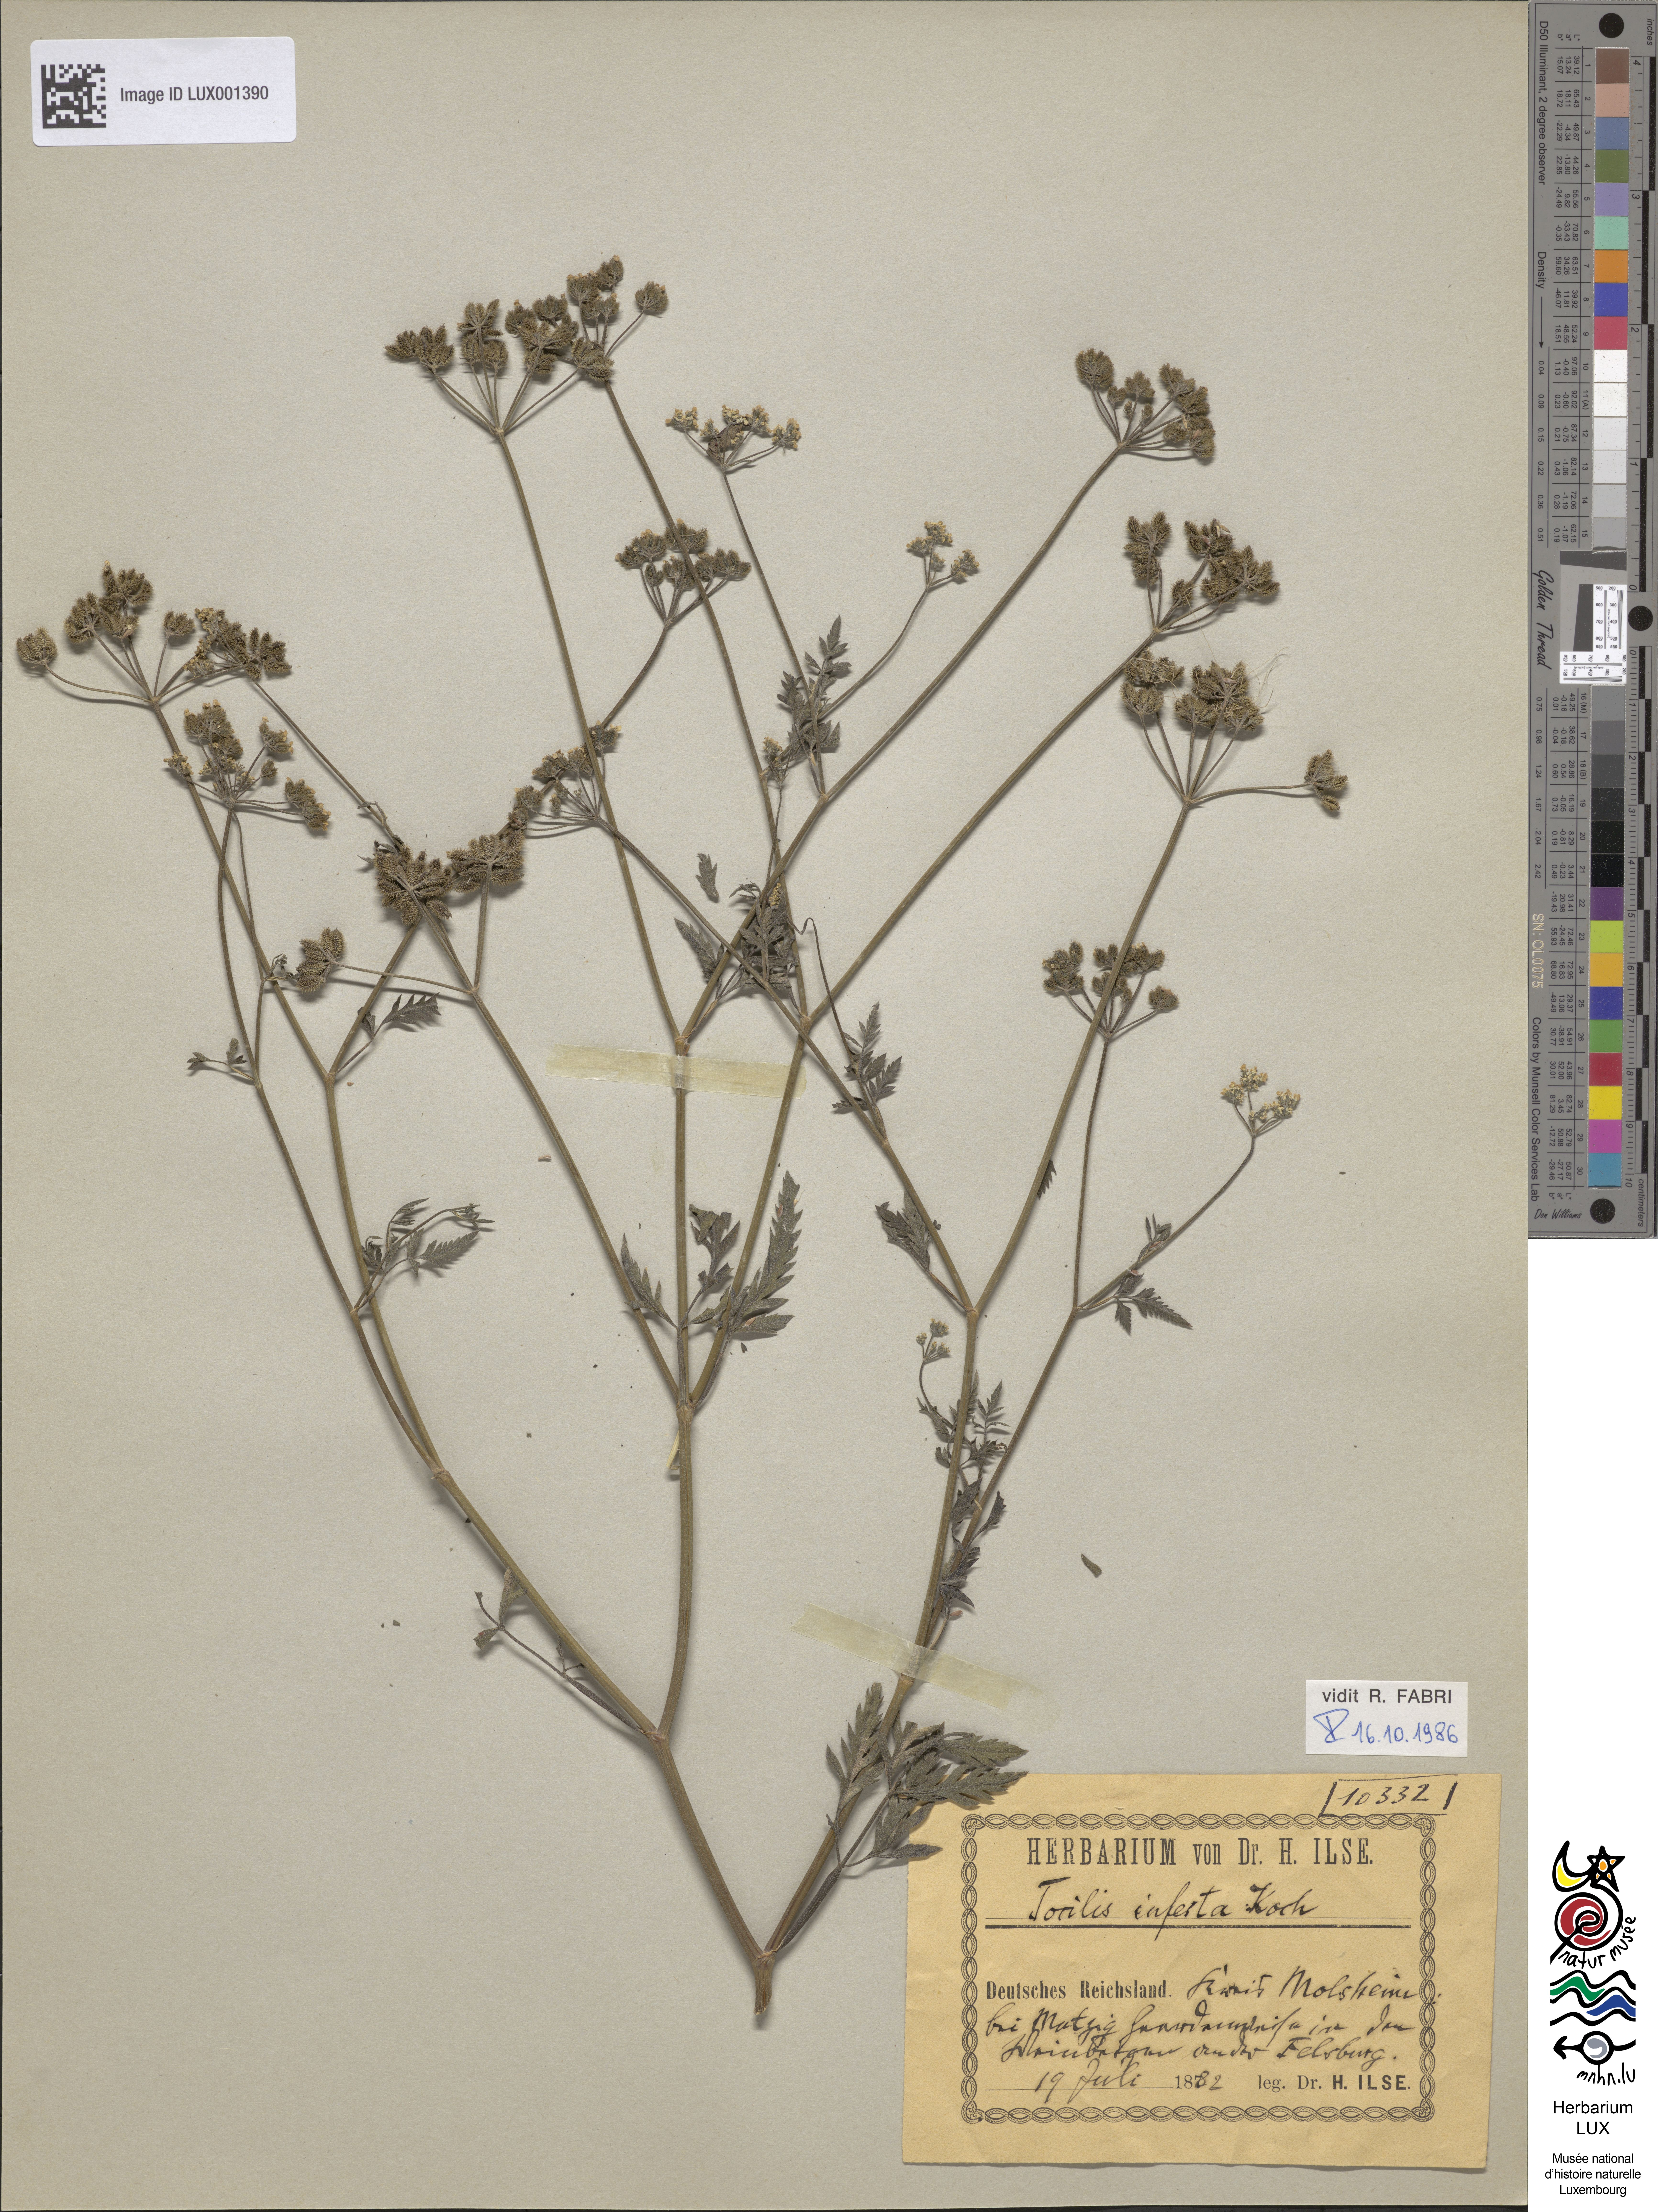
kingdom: Plantae
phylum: Tracheophyta
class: Magnoliopsida
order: Apiales
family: Apiaceae
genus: Torilis
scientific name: Torilis arvensis
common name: Spreading hedge-parsley
